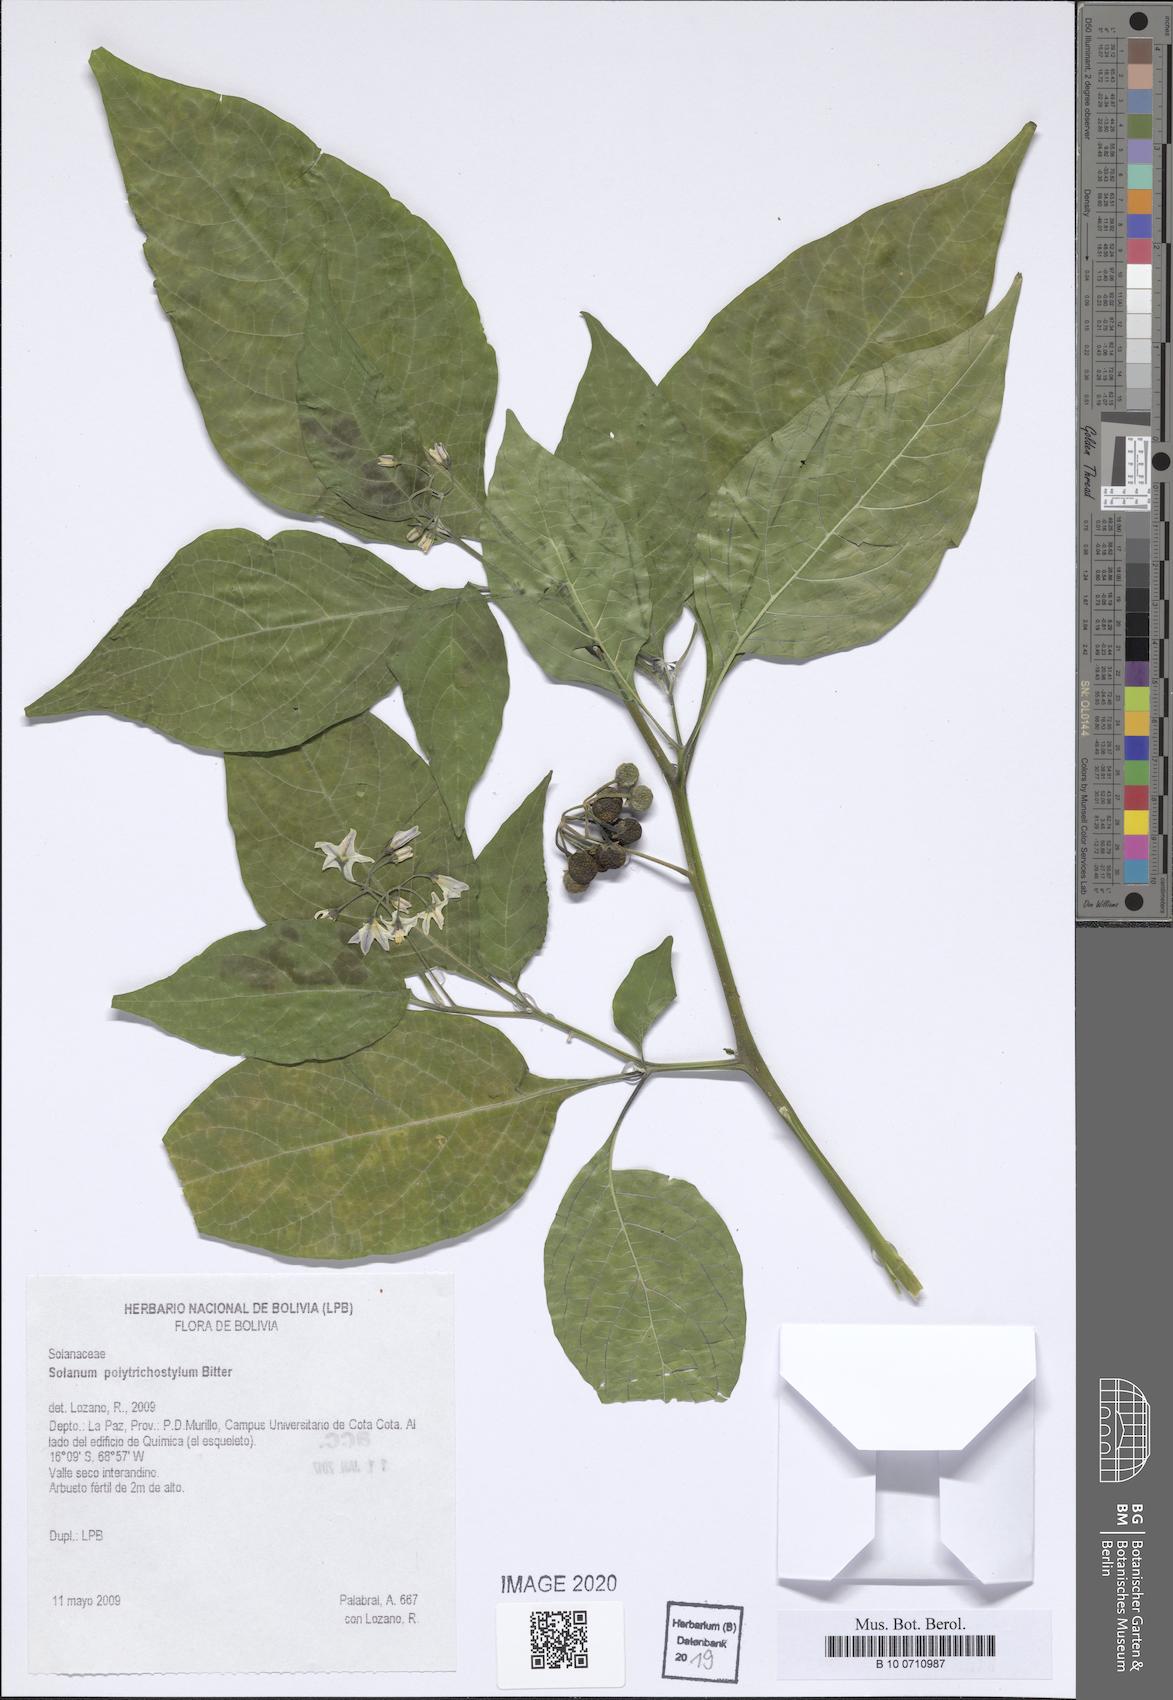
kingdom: Plantae
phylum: Tracheophyta
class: Magnoliopsida
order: Solanales
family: Solanaceae
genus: Solanum
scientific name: Solanum polytrichostylum
